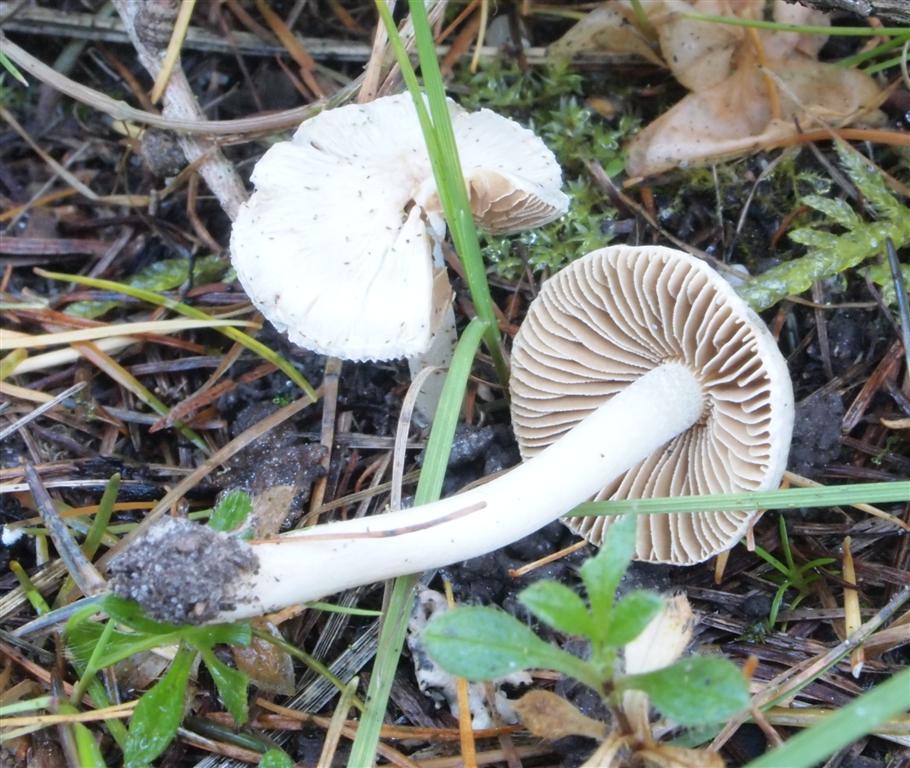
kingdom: Fungi
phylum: Basidiomycota
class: Agaricomycetes
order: Agaricales
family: Inocybaceae
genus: Inocybe
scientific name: Inocybe
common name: almindelig trævlhat
